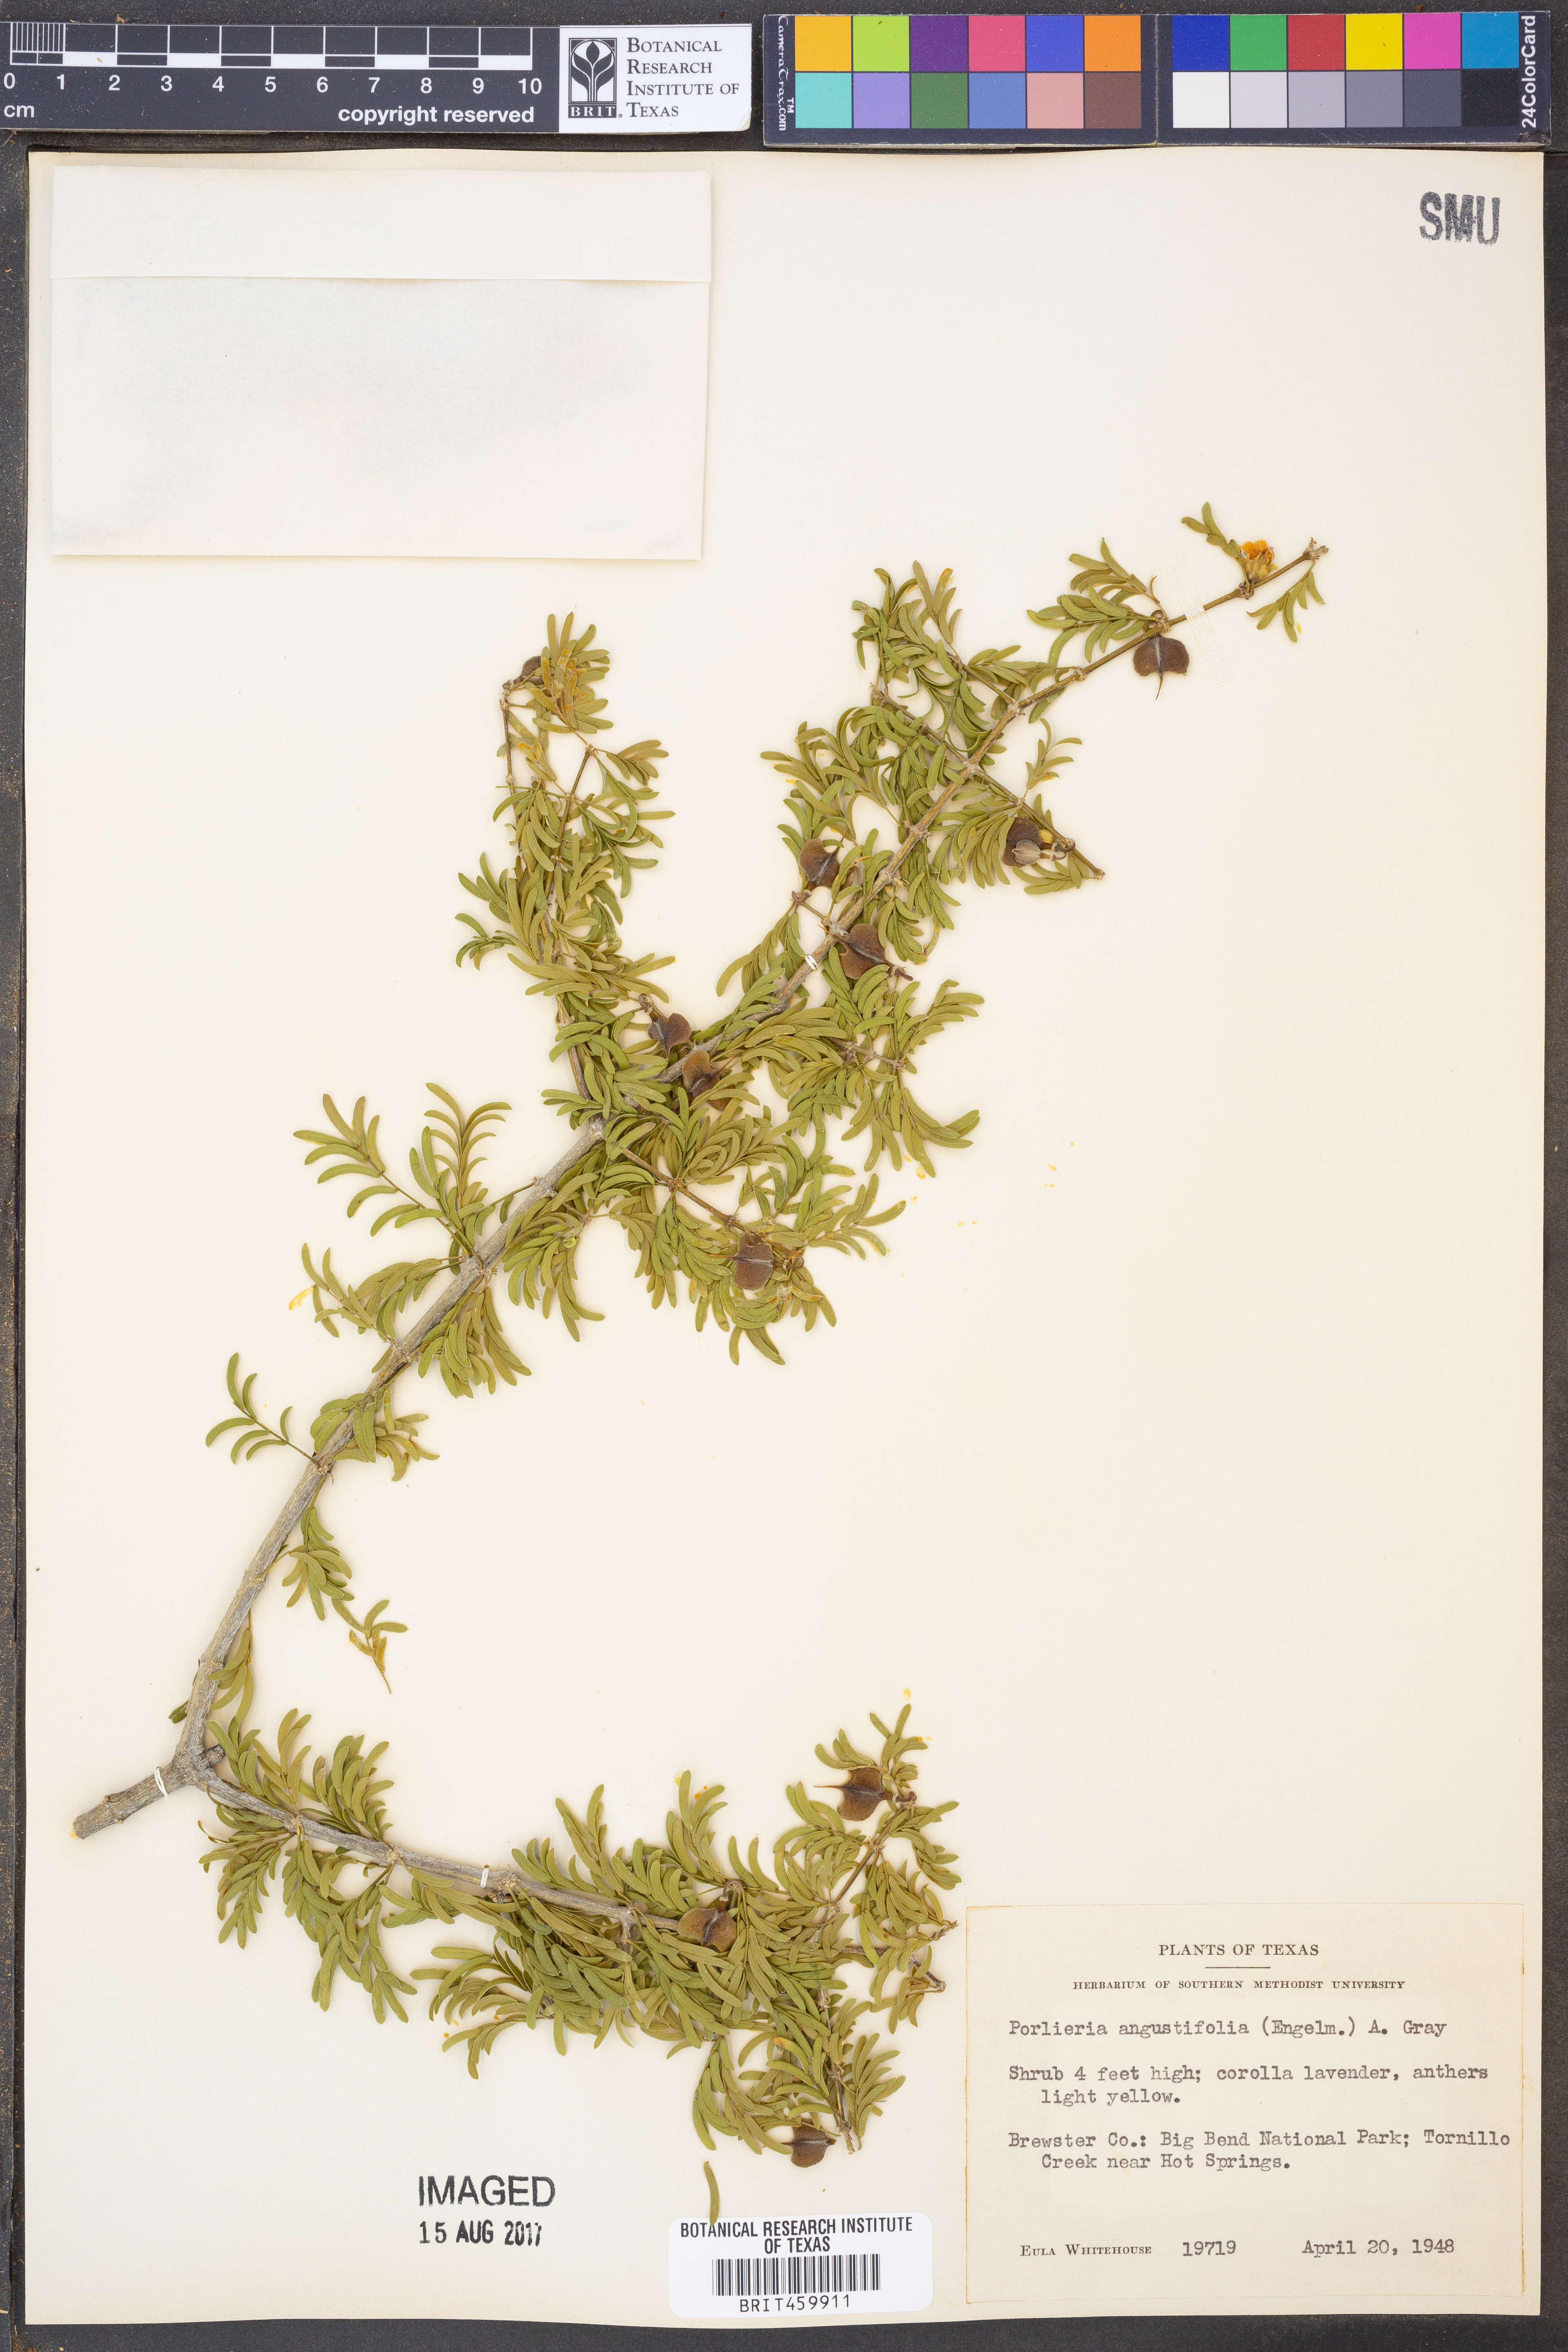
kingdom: Plantae
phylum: Tracheophyta
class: Magnoliopsida
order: Zygophyllales
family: Zygophyllaceae
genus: Porlieria
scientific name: Porlieria angustifolia
